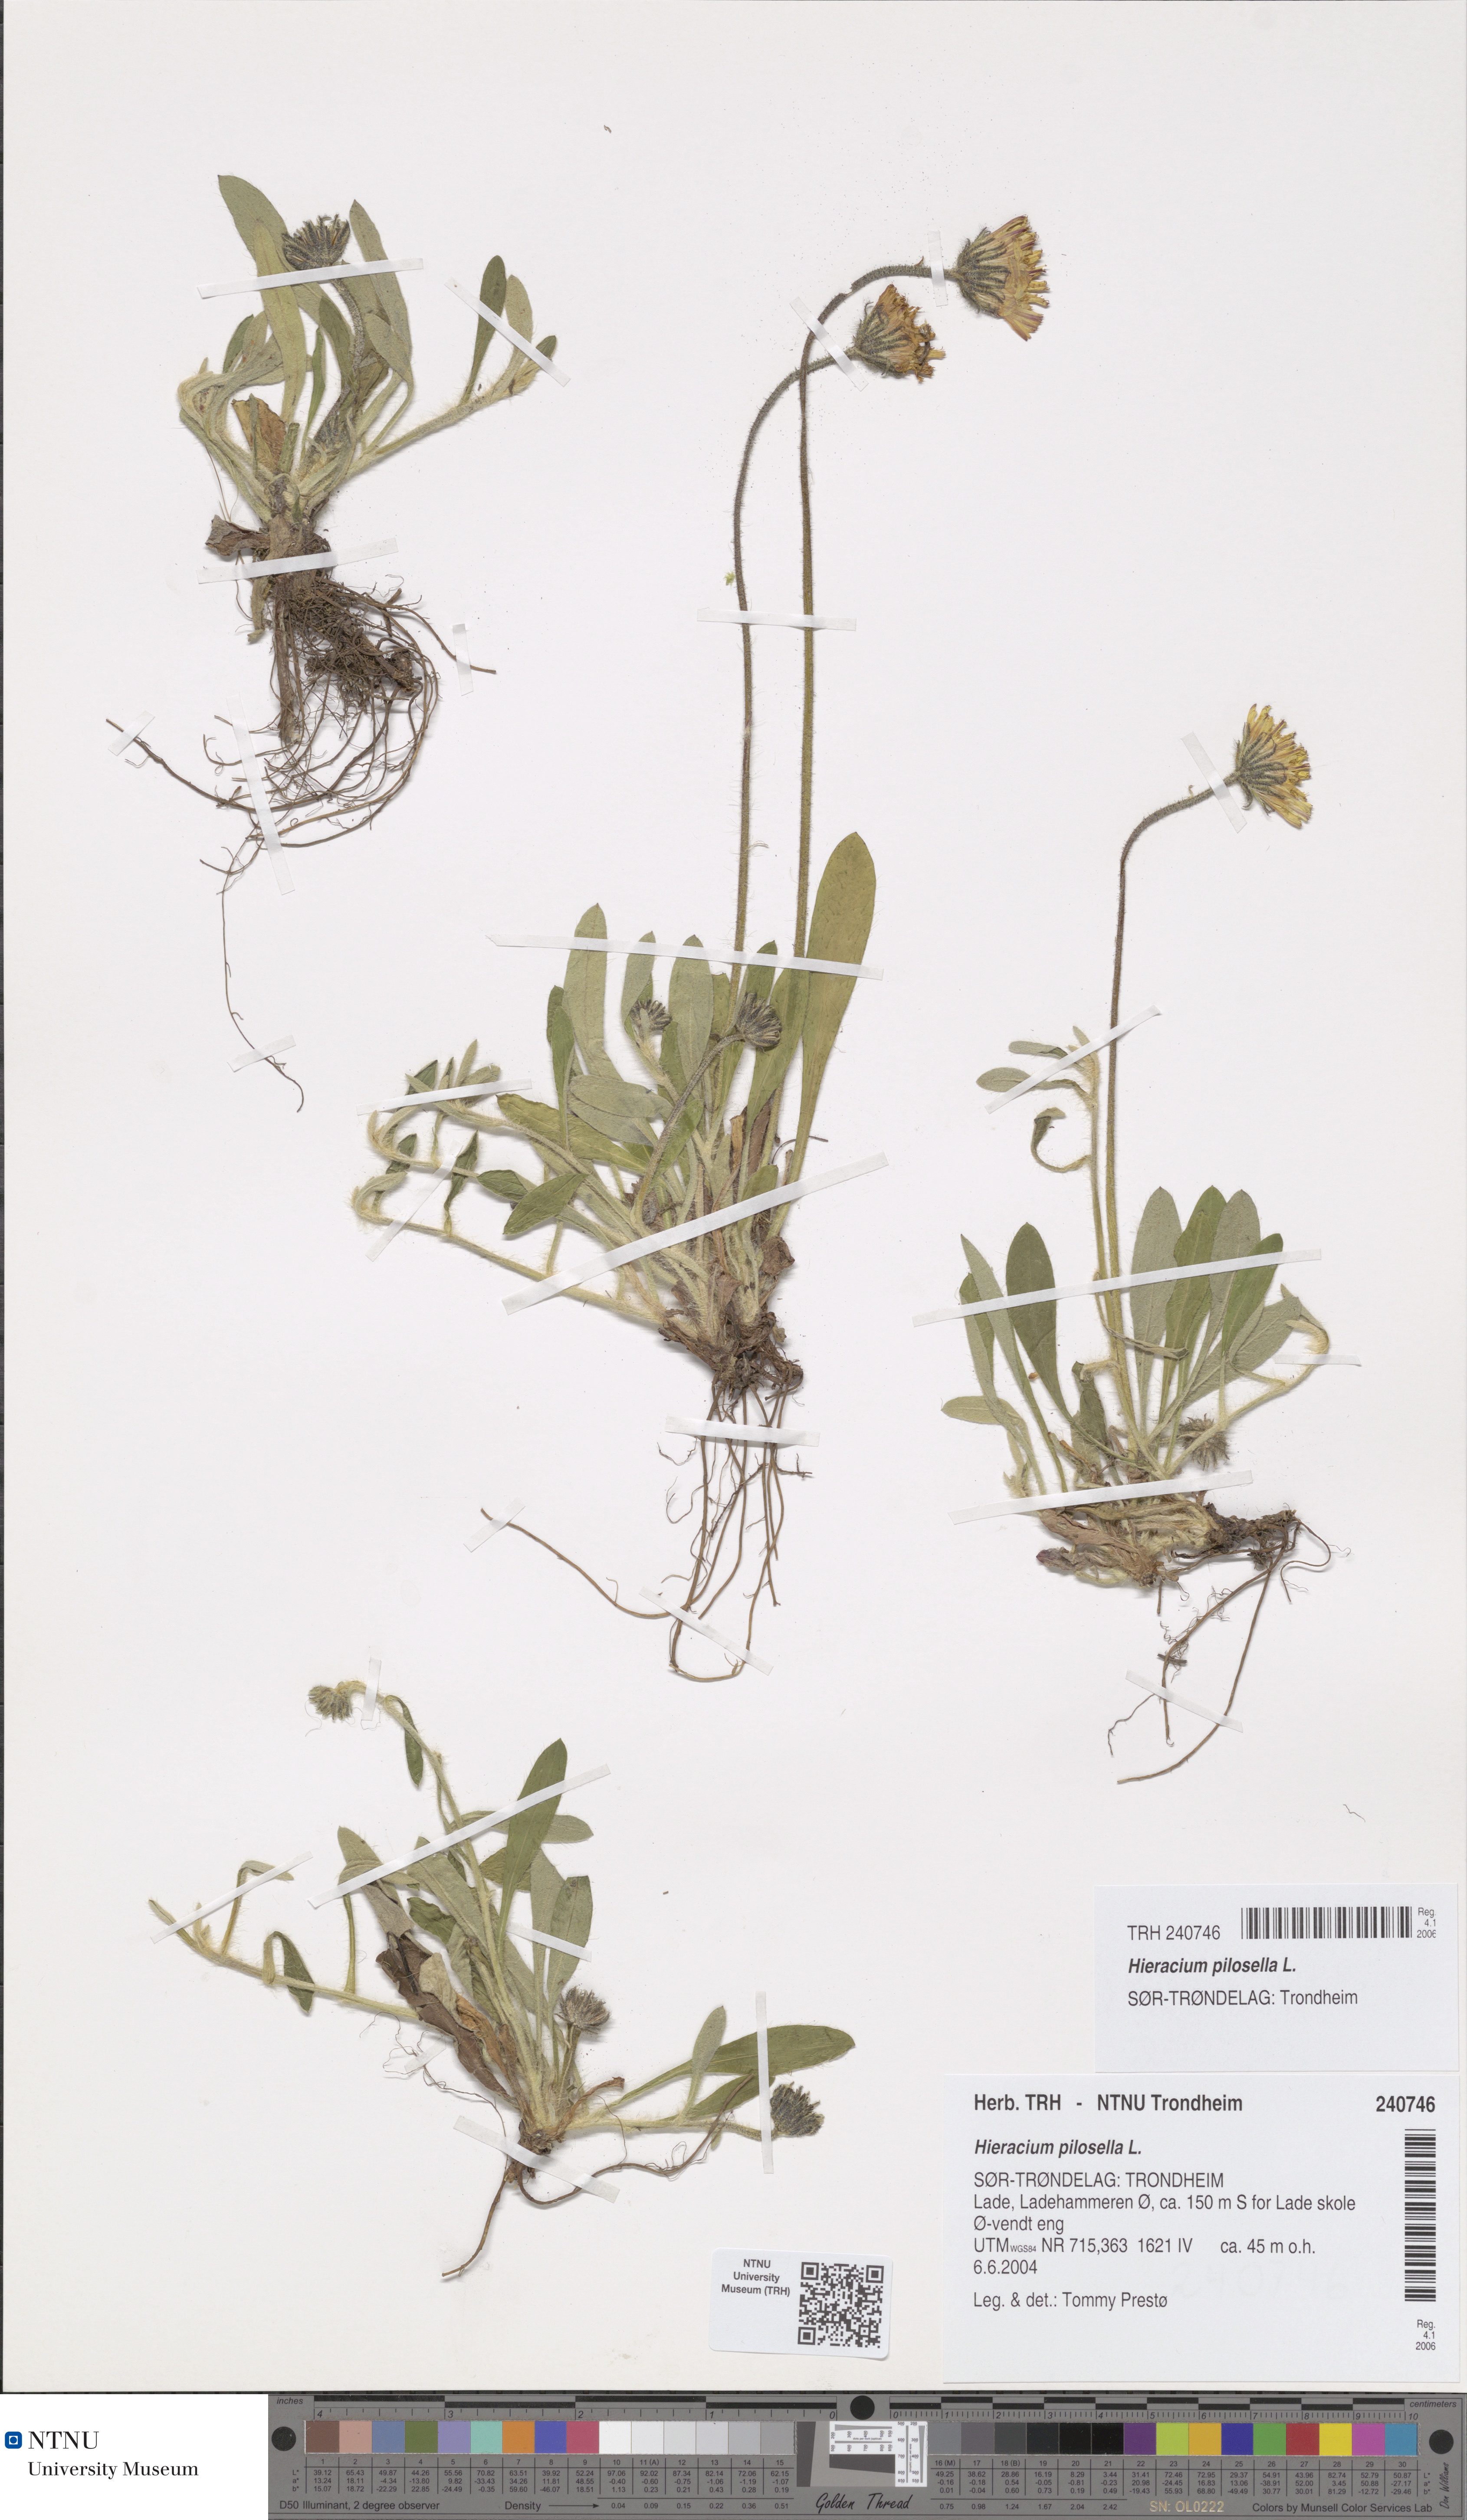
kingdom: Plantae
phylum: Tracheophyta
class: Magnoliopsida
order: Asterales
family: Asteraceae
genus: Pilosella
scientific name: Pilosella officinarum
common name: Mouse-ear hawkweed
